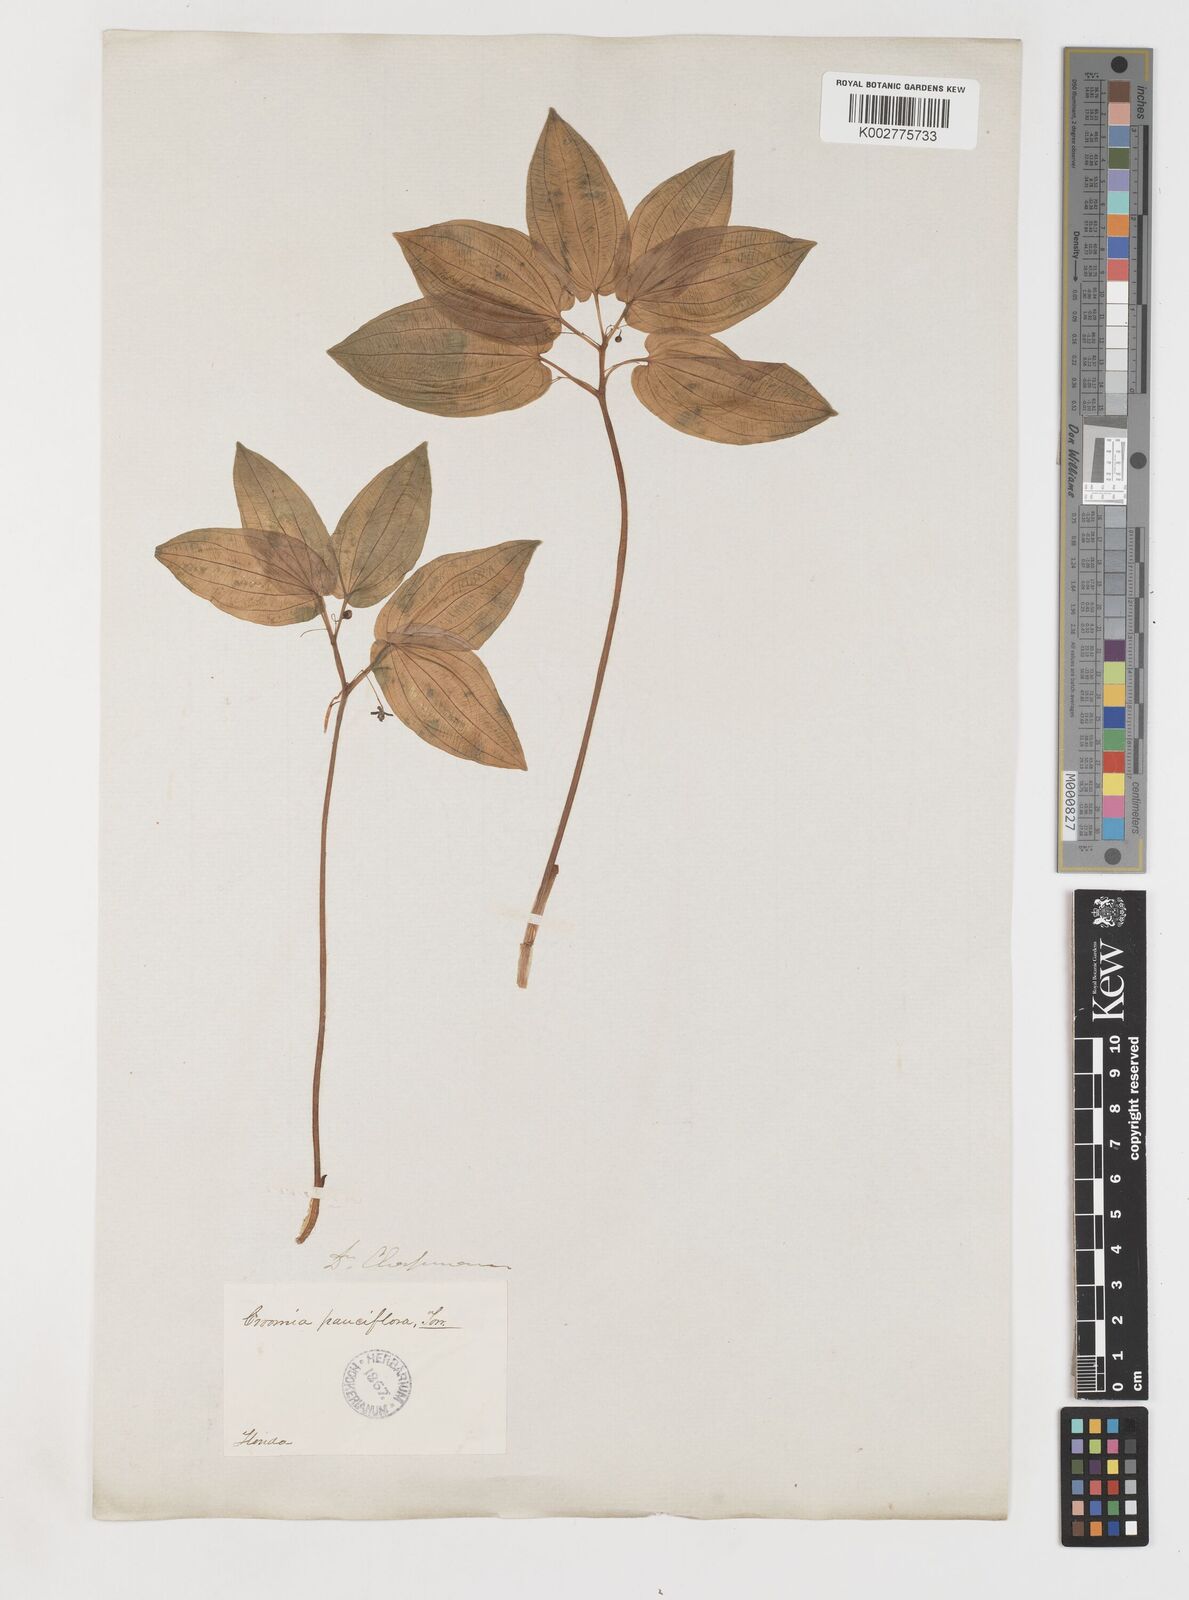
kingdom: Plantae
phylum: Tracheophyta
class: Liliopsida
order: Pandanales
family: Stemonaceae
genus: Croomia
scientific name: Croomia pauciflora
